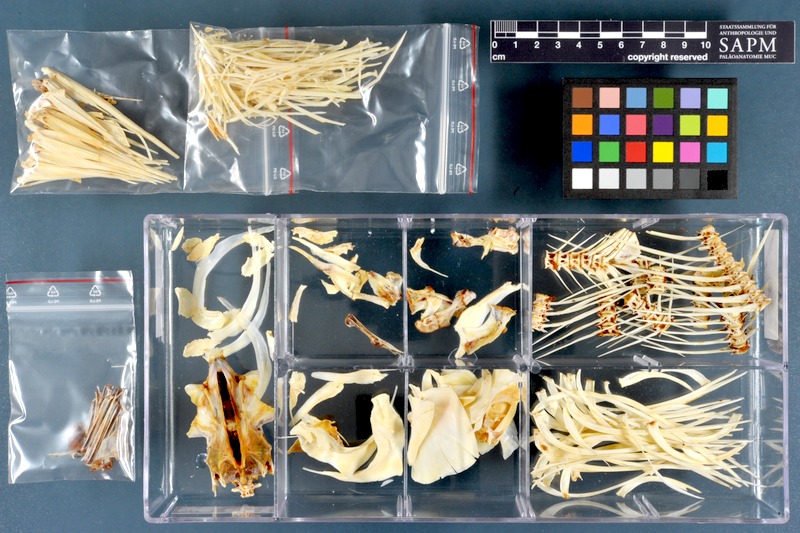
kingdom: Animalia
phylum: Chordata
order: Characiformes
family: Citharinidae
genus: Citharinus
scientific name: Citharinus citharus
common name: Moon fish
